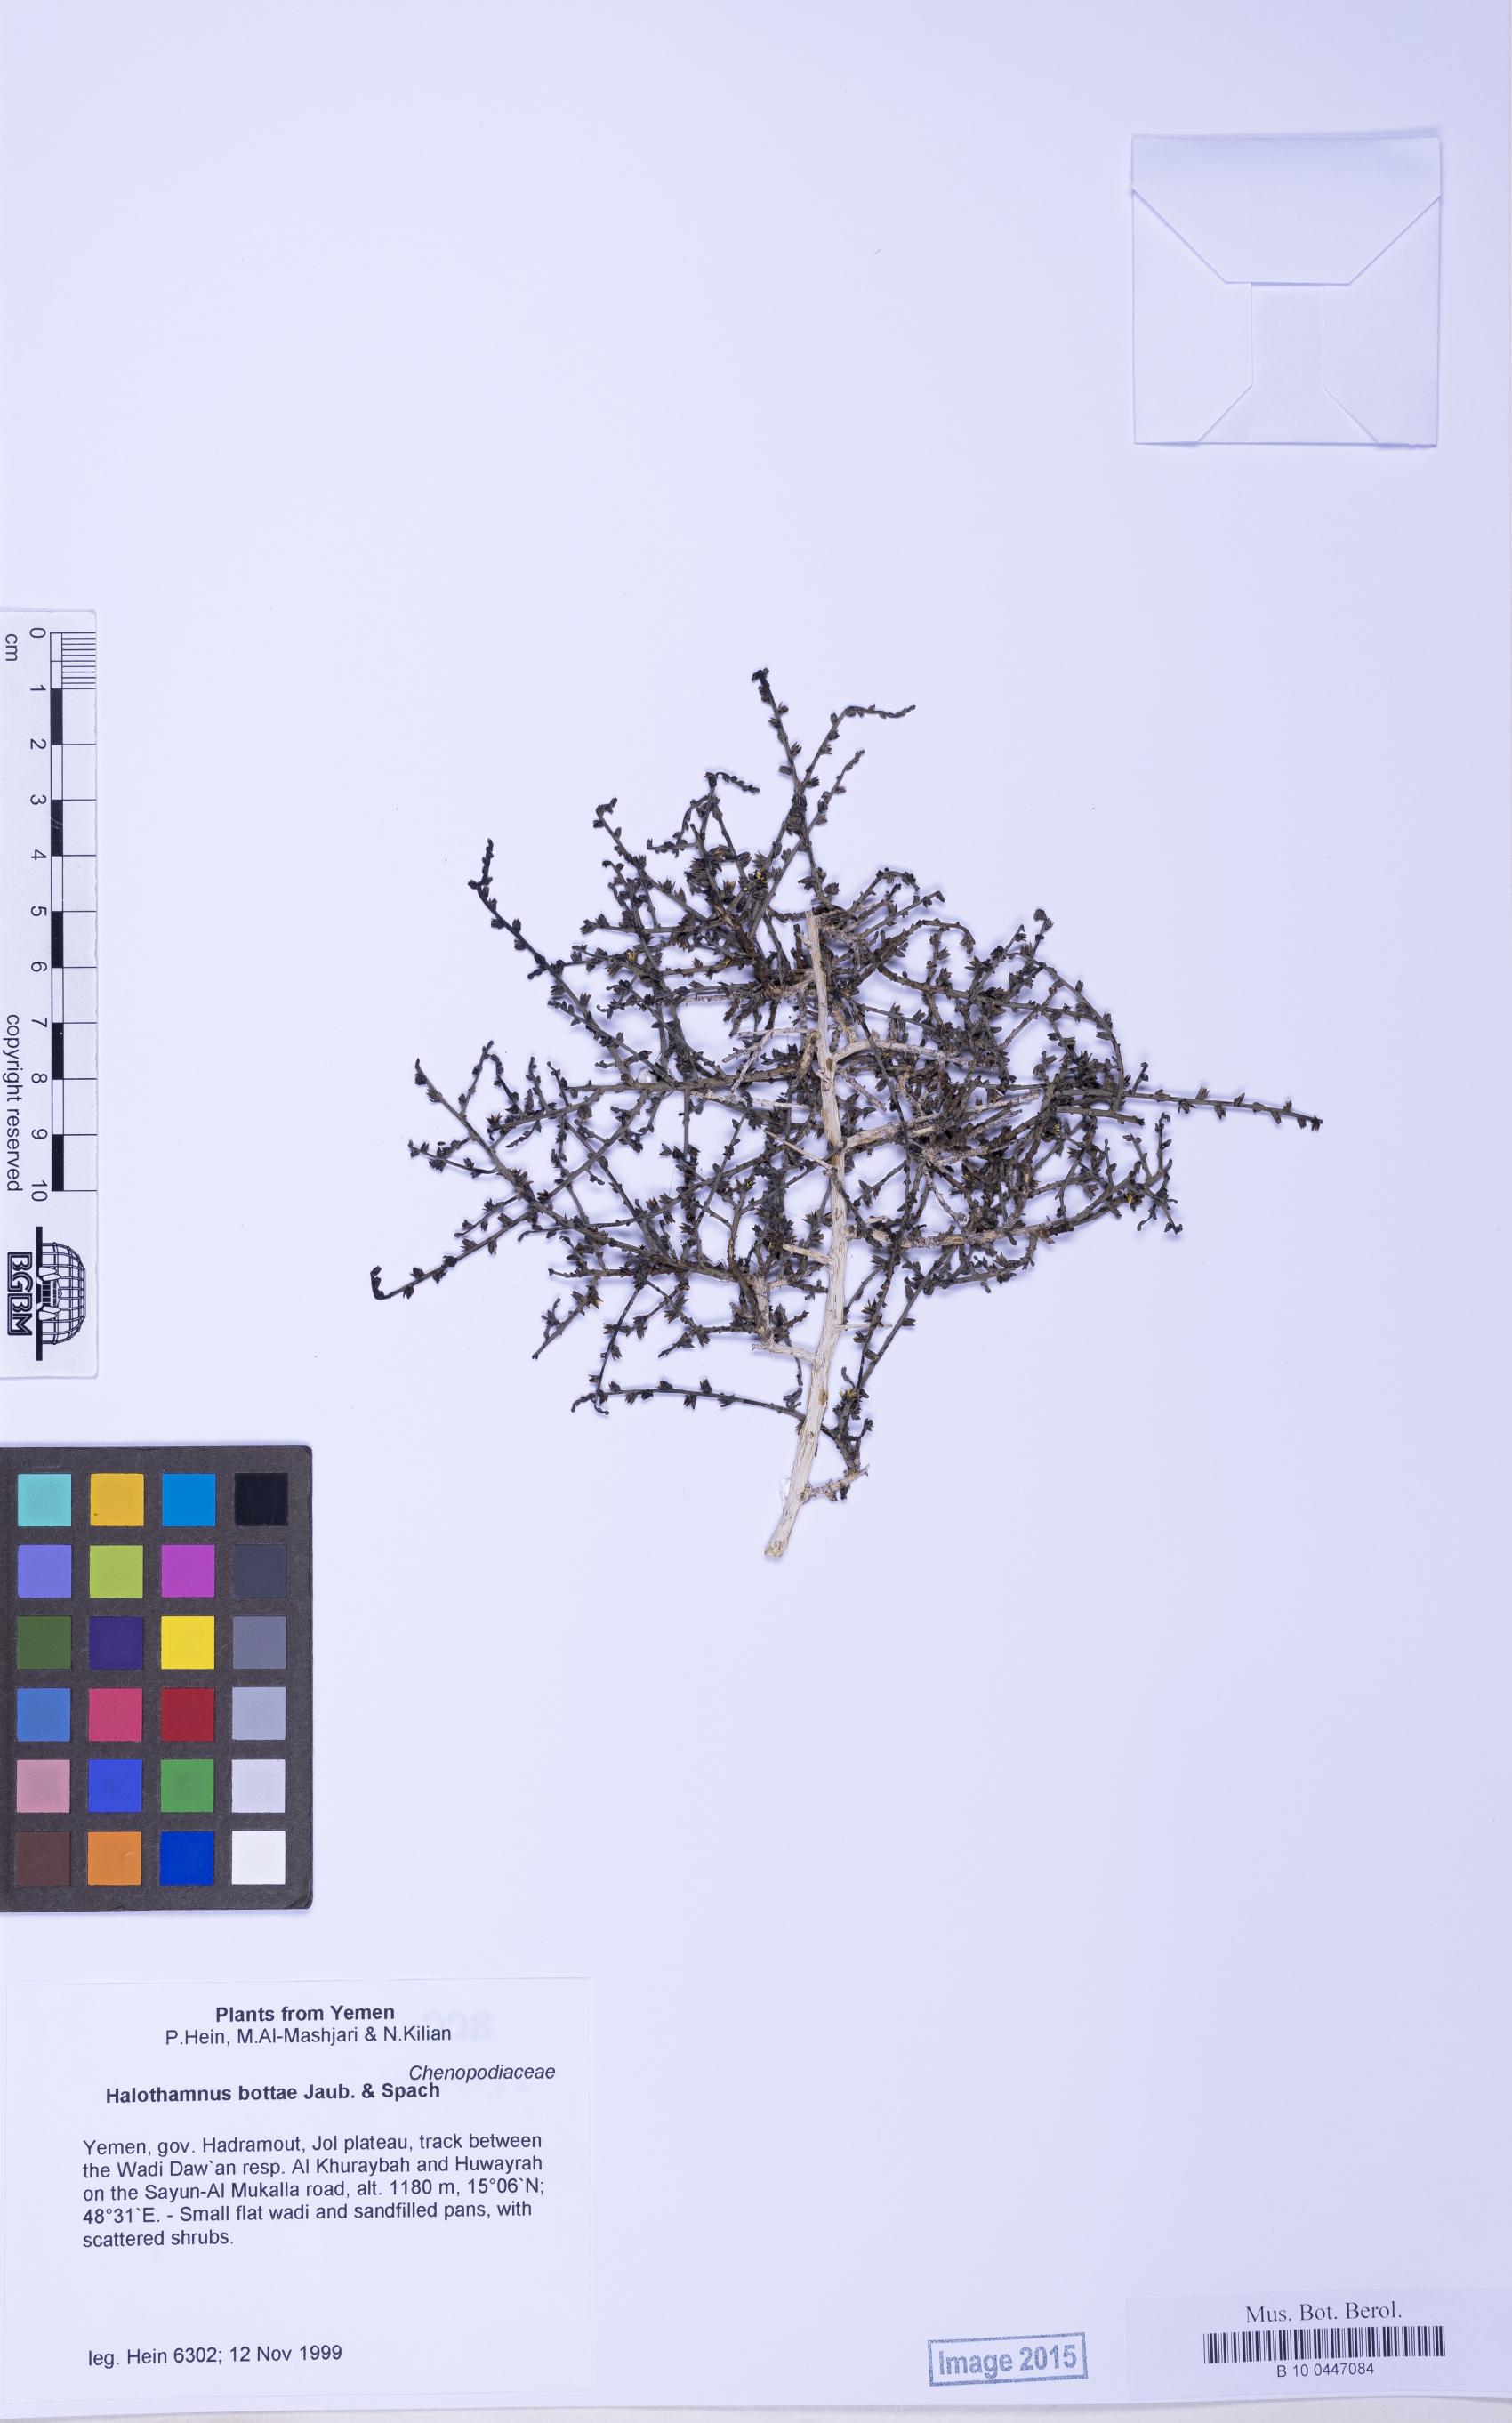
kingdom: Plantae
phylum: Tracheophyta
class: Magnoliopsida
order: Caryophyllales
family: Amaranthaceae
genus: Halothamnus
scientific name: Halothamnus bottae
